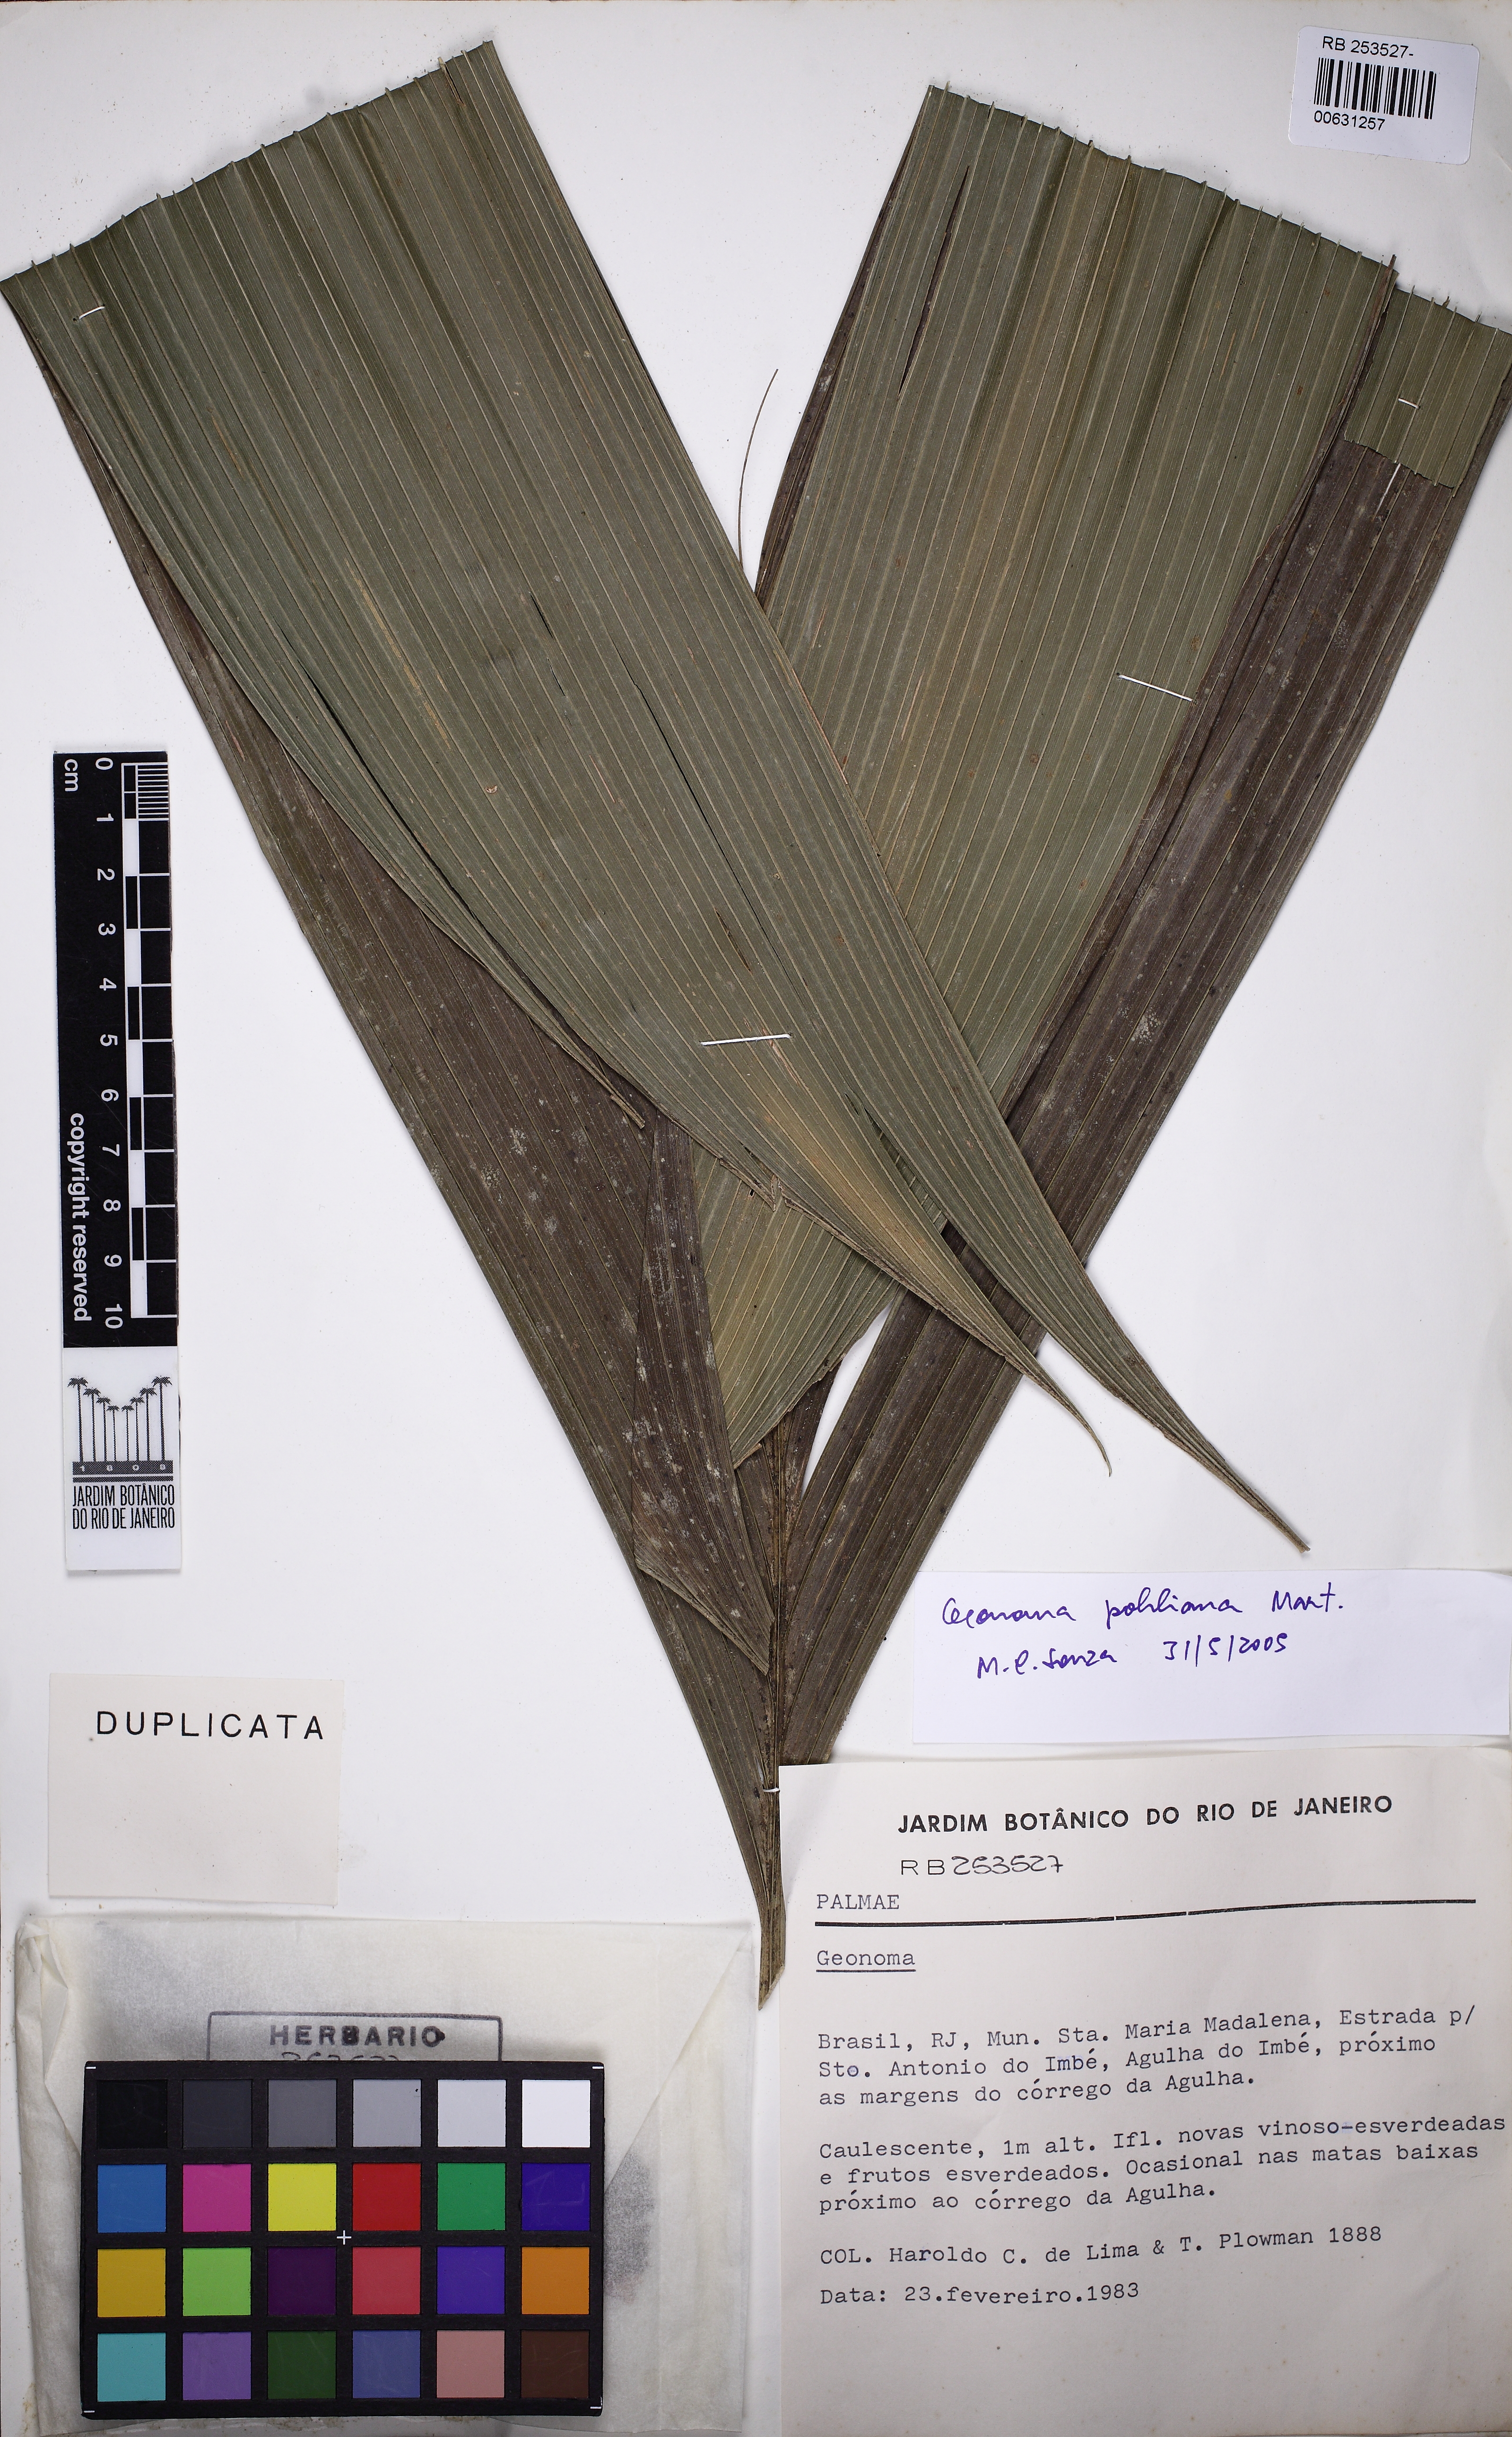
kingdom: Plantae
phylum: Tracheophyta
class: Liliopsida
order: Arecales
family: Arecaceae
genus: Geonoma
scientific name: Geonoma pohliana
